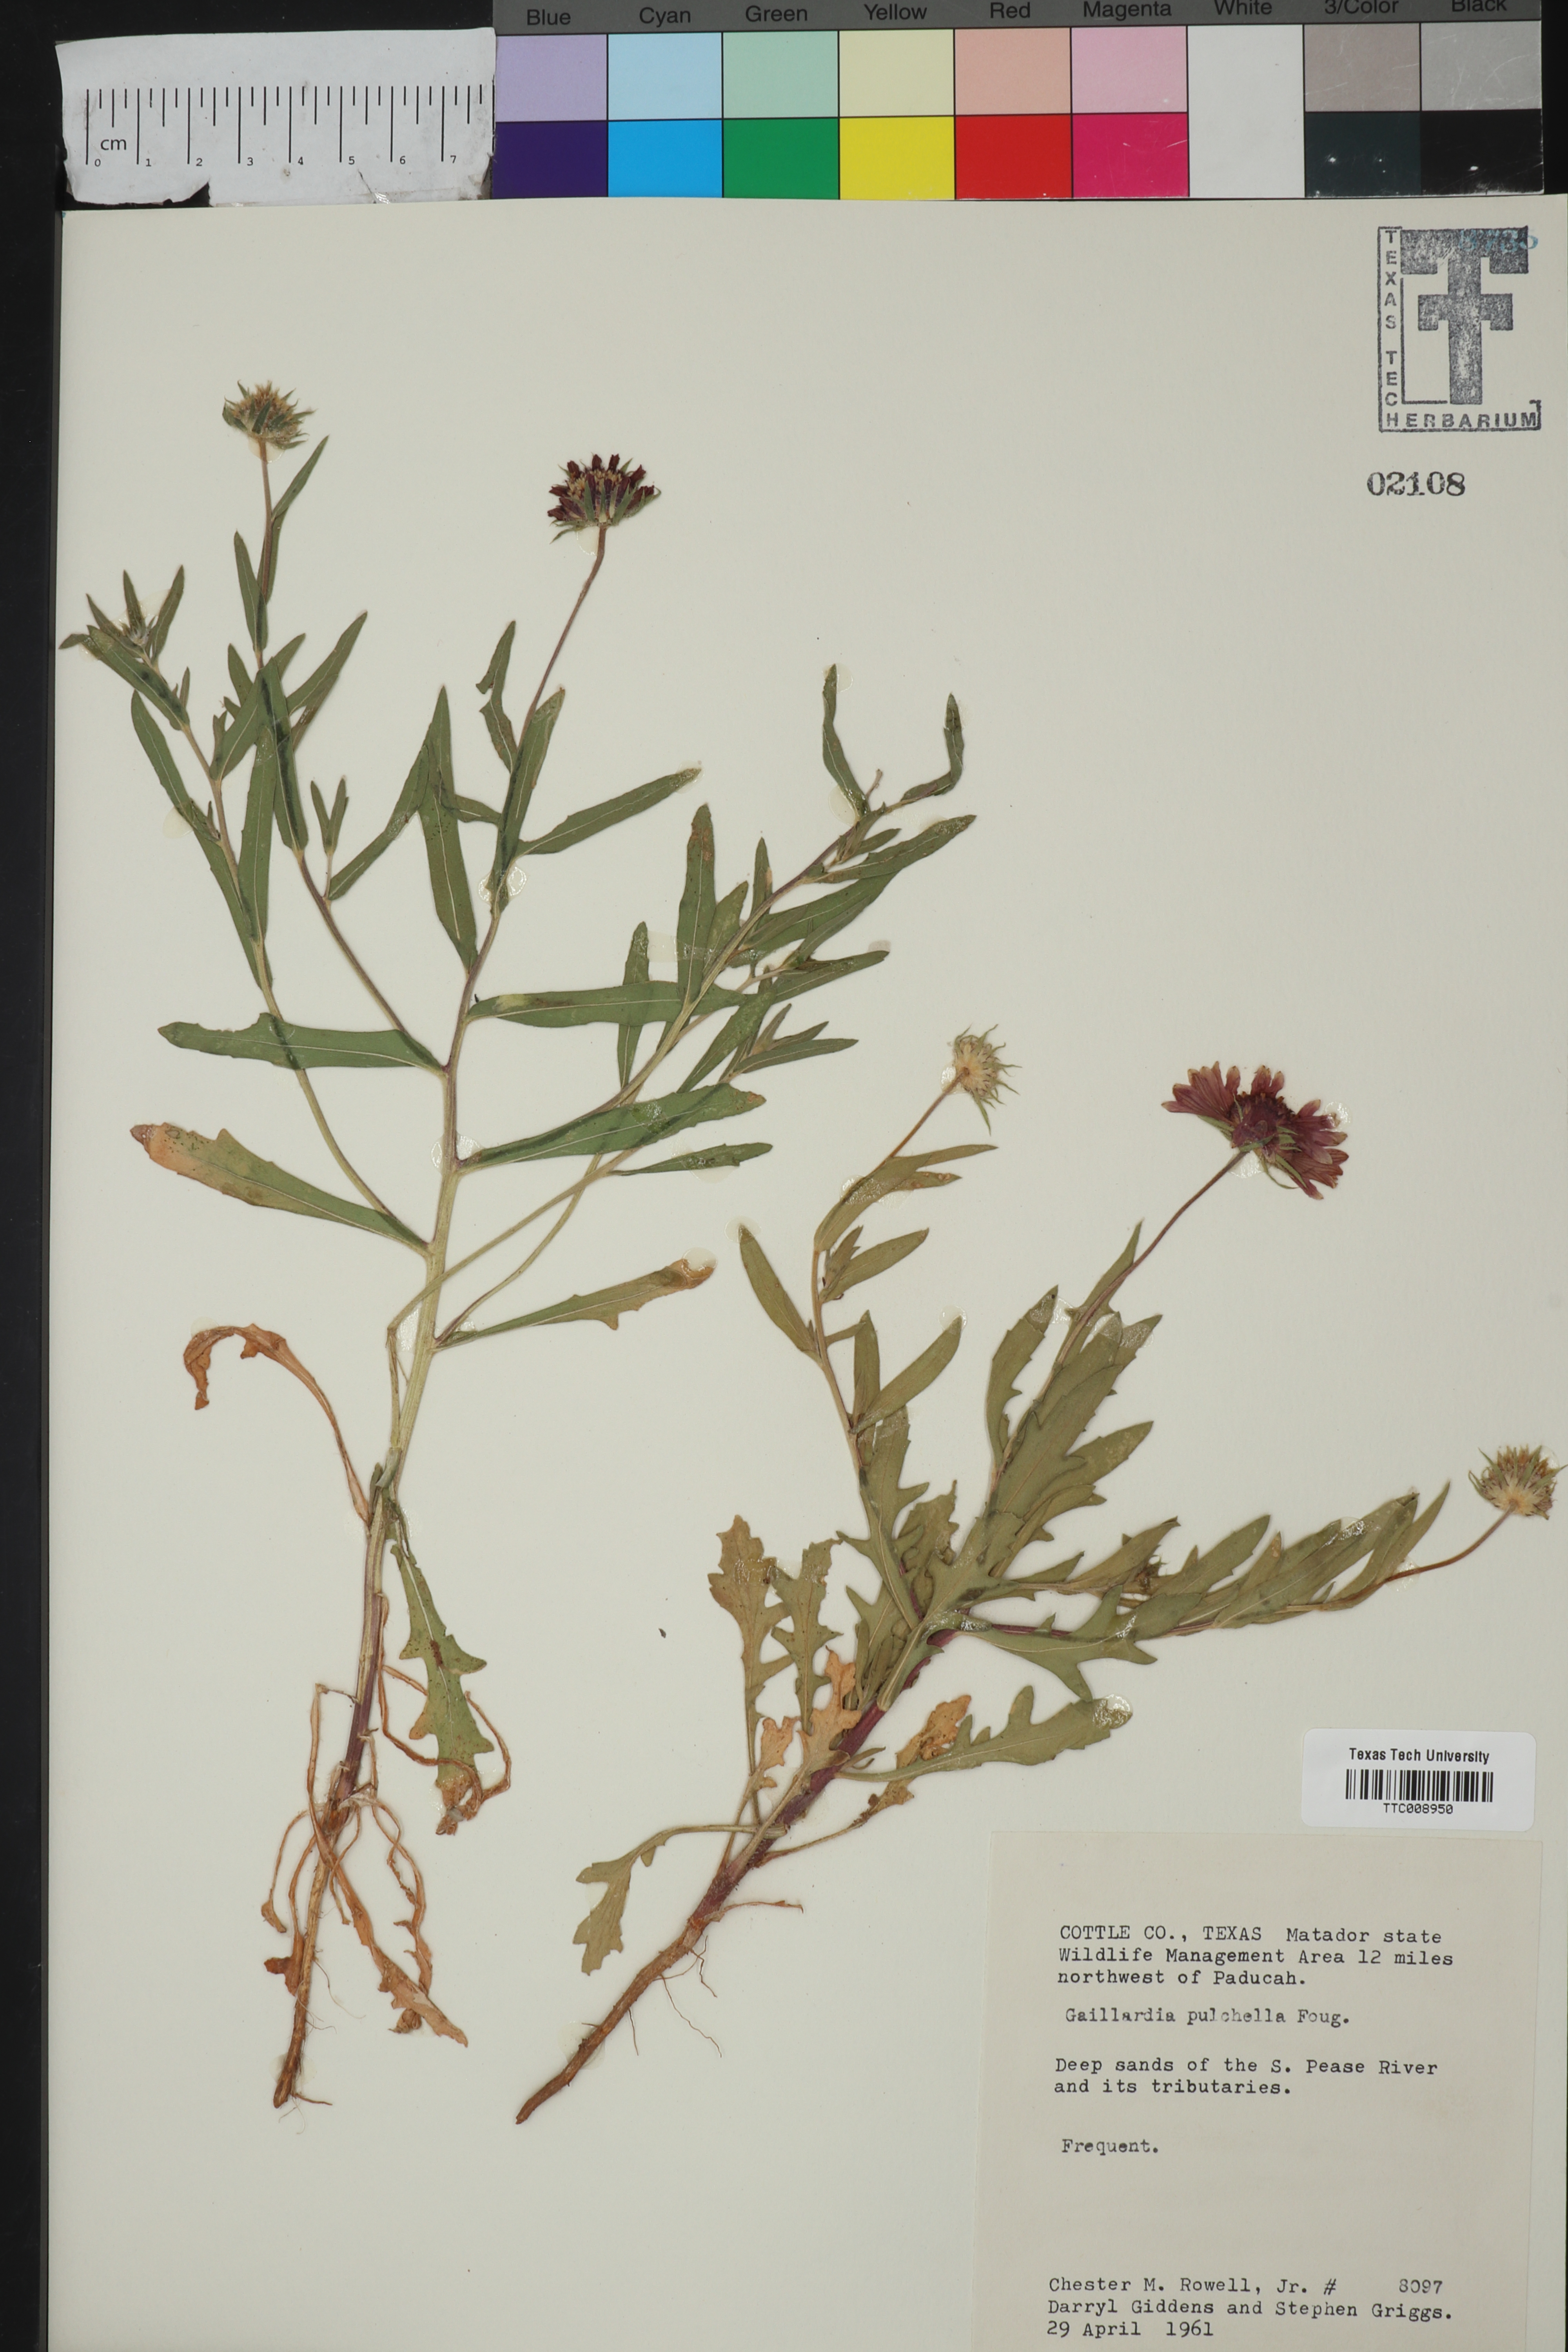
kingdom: Plantae
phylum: Tracheophyta
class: Magnoliopsida
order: Asterales
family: Asteraceae
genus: Gaillardia
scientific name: Gaillardia pulchella
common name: Firewheel
